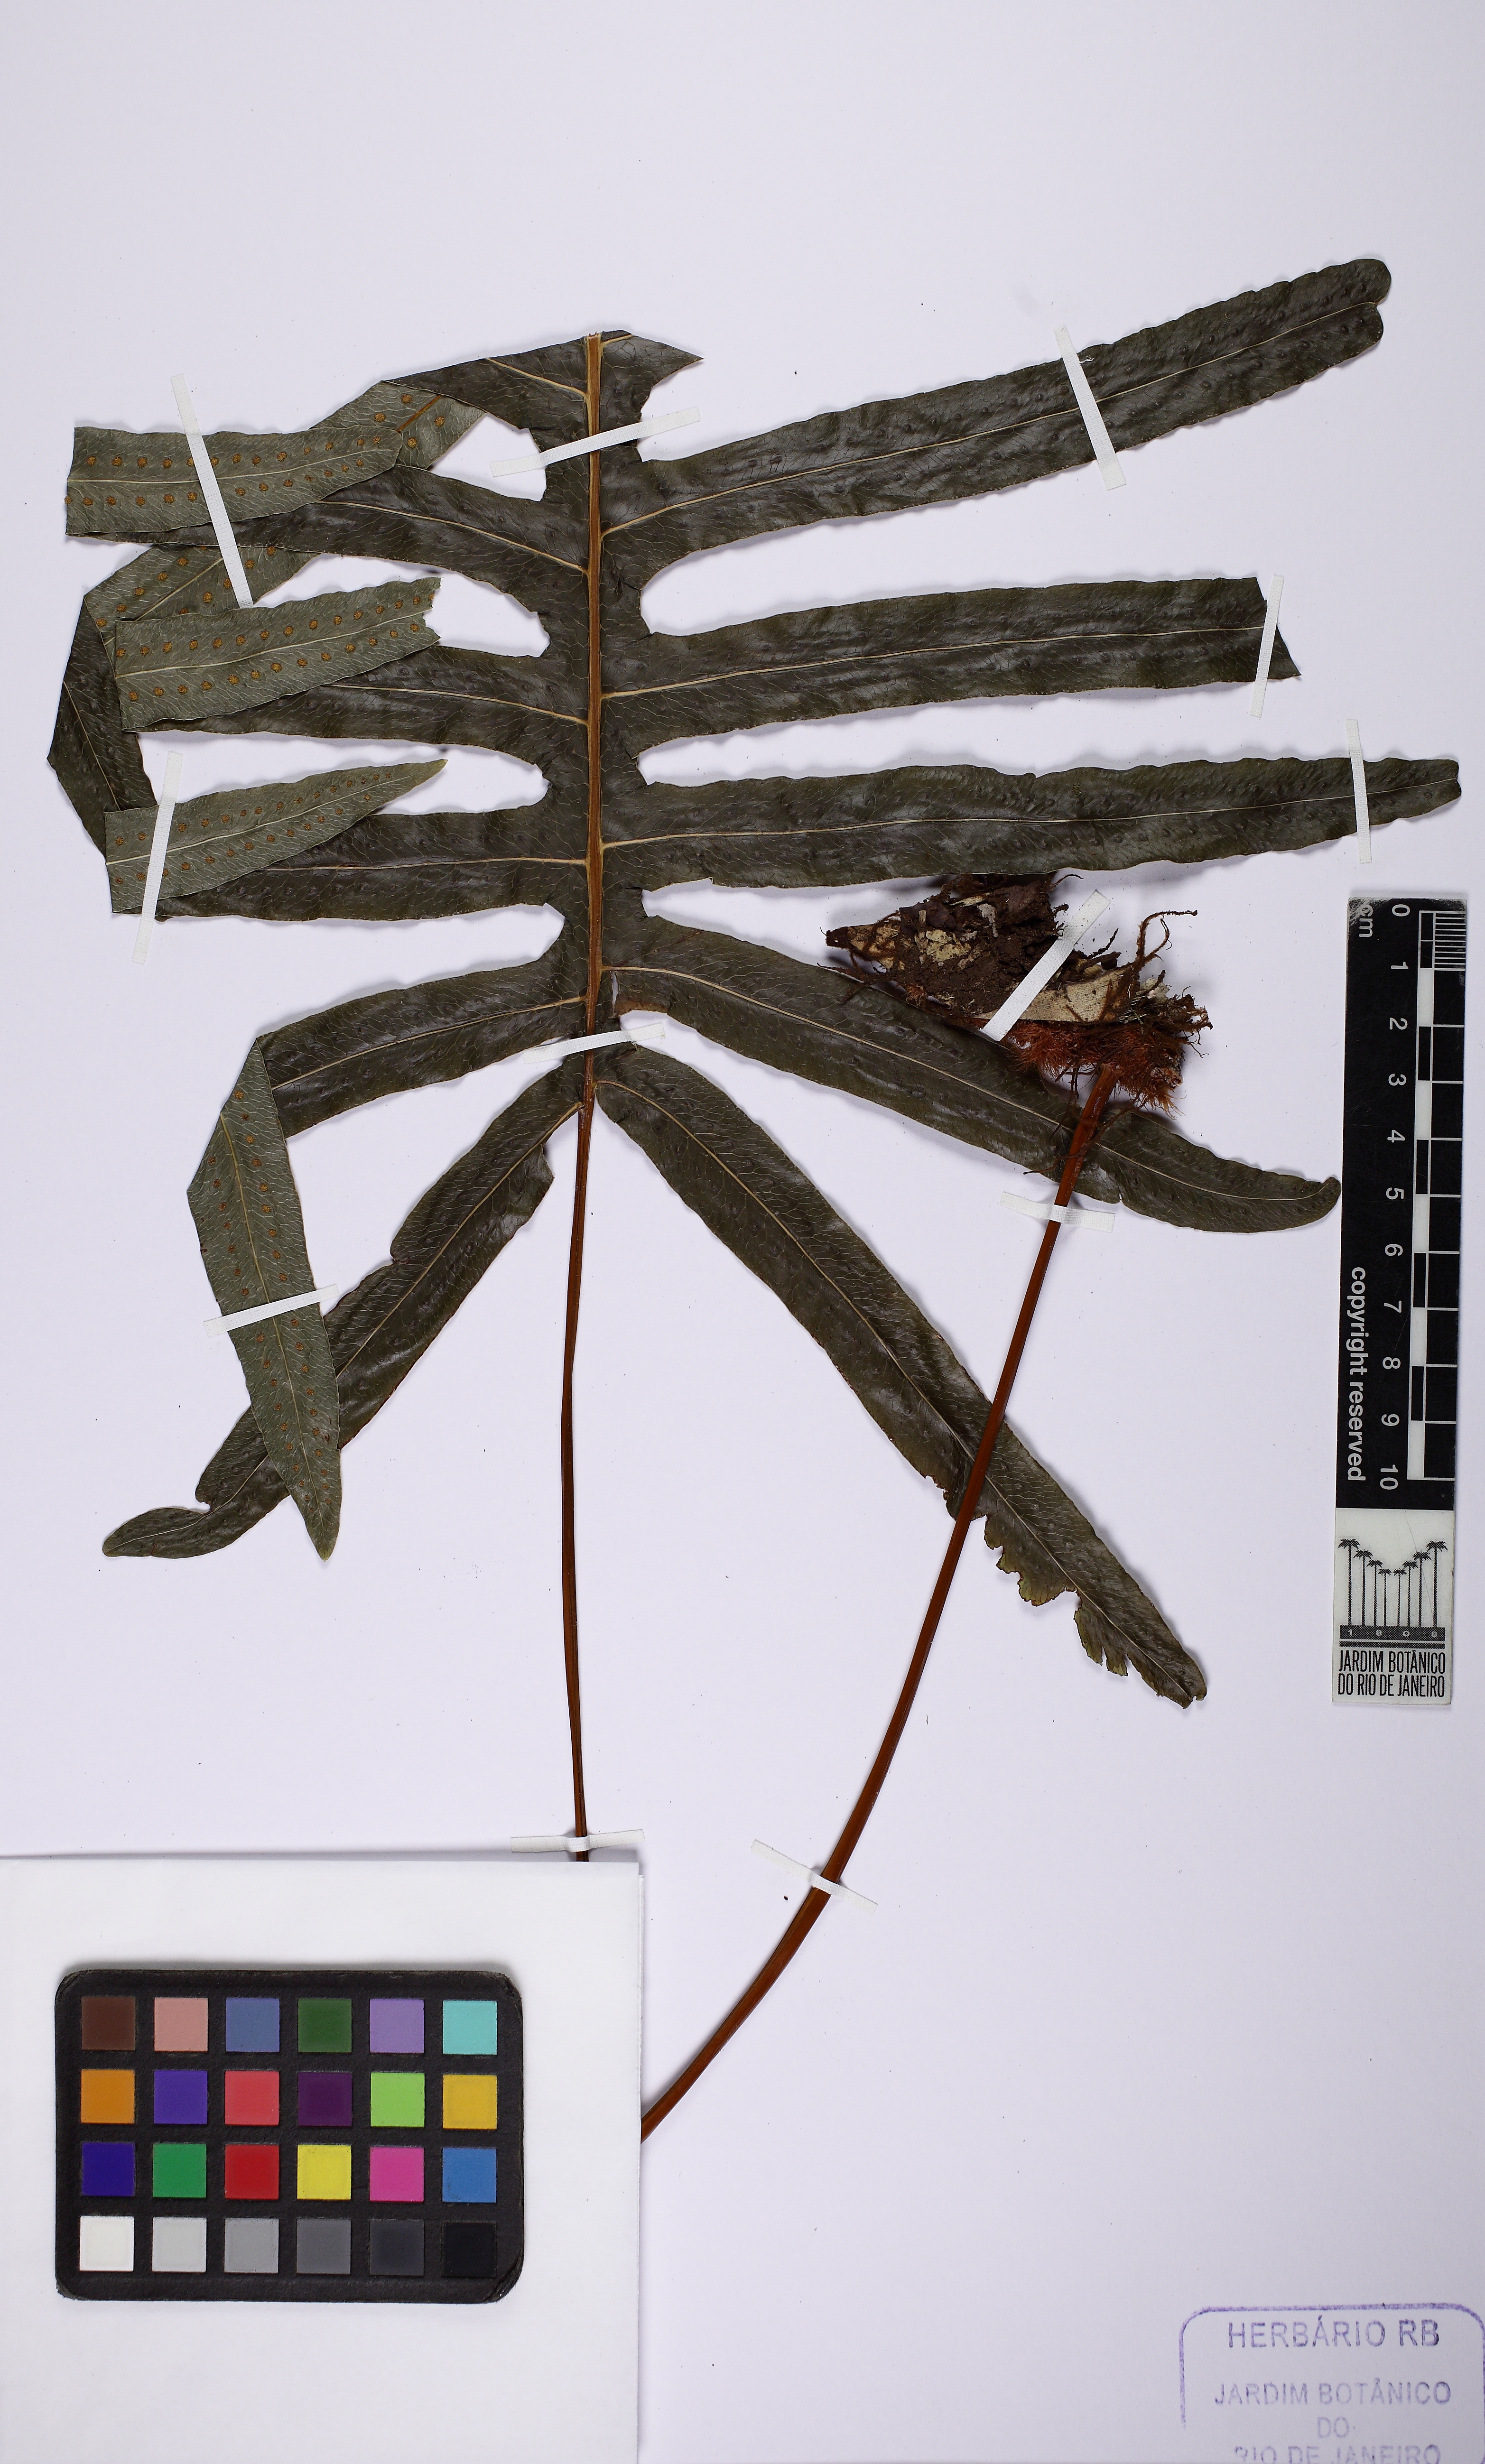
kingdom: Plantae
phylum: Tracheophyta
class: Polypodiopsida
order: Polypodiales
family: Polypodiaceae
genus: Phlebodium
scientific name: Phlebodium pseudoaureum
